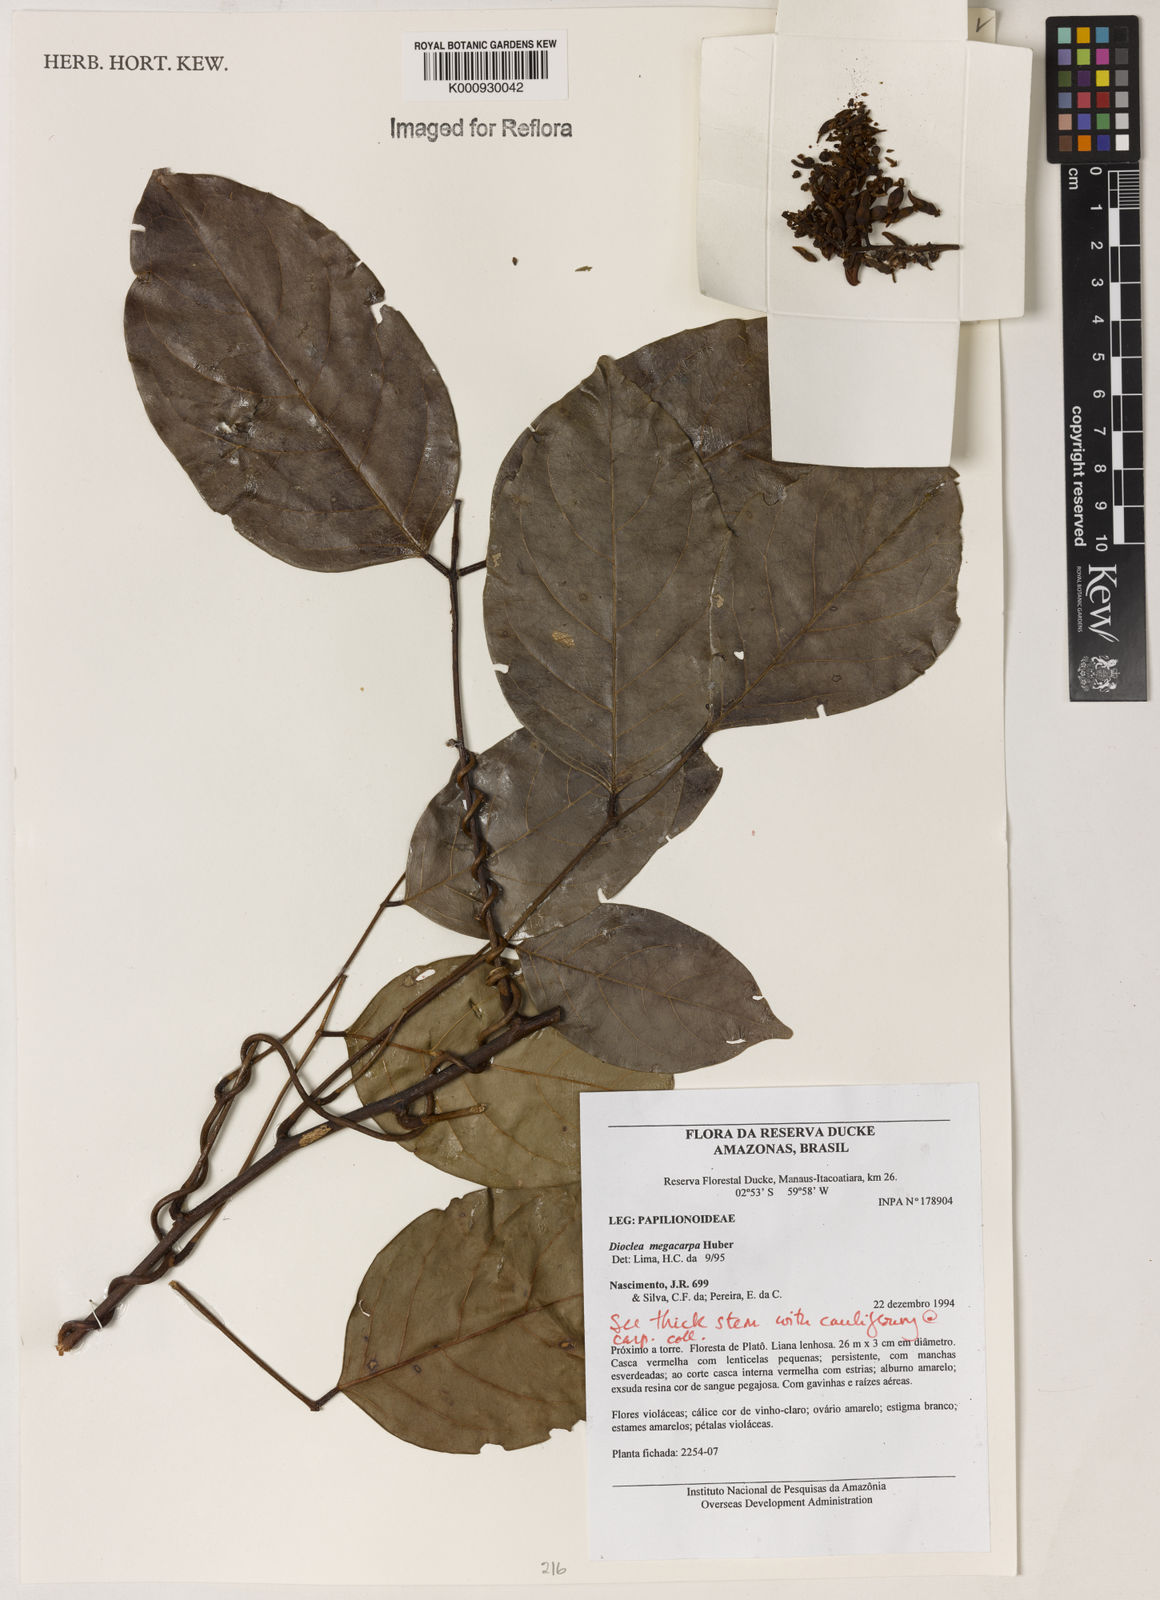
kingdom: Plantae
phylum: Tracheophyta
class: Magnoliopsida
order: Fabales
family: Fabaceae
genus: Macropsychanthus
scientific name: Macropsychanthus megacarpus
